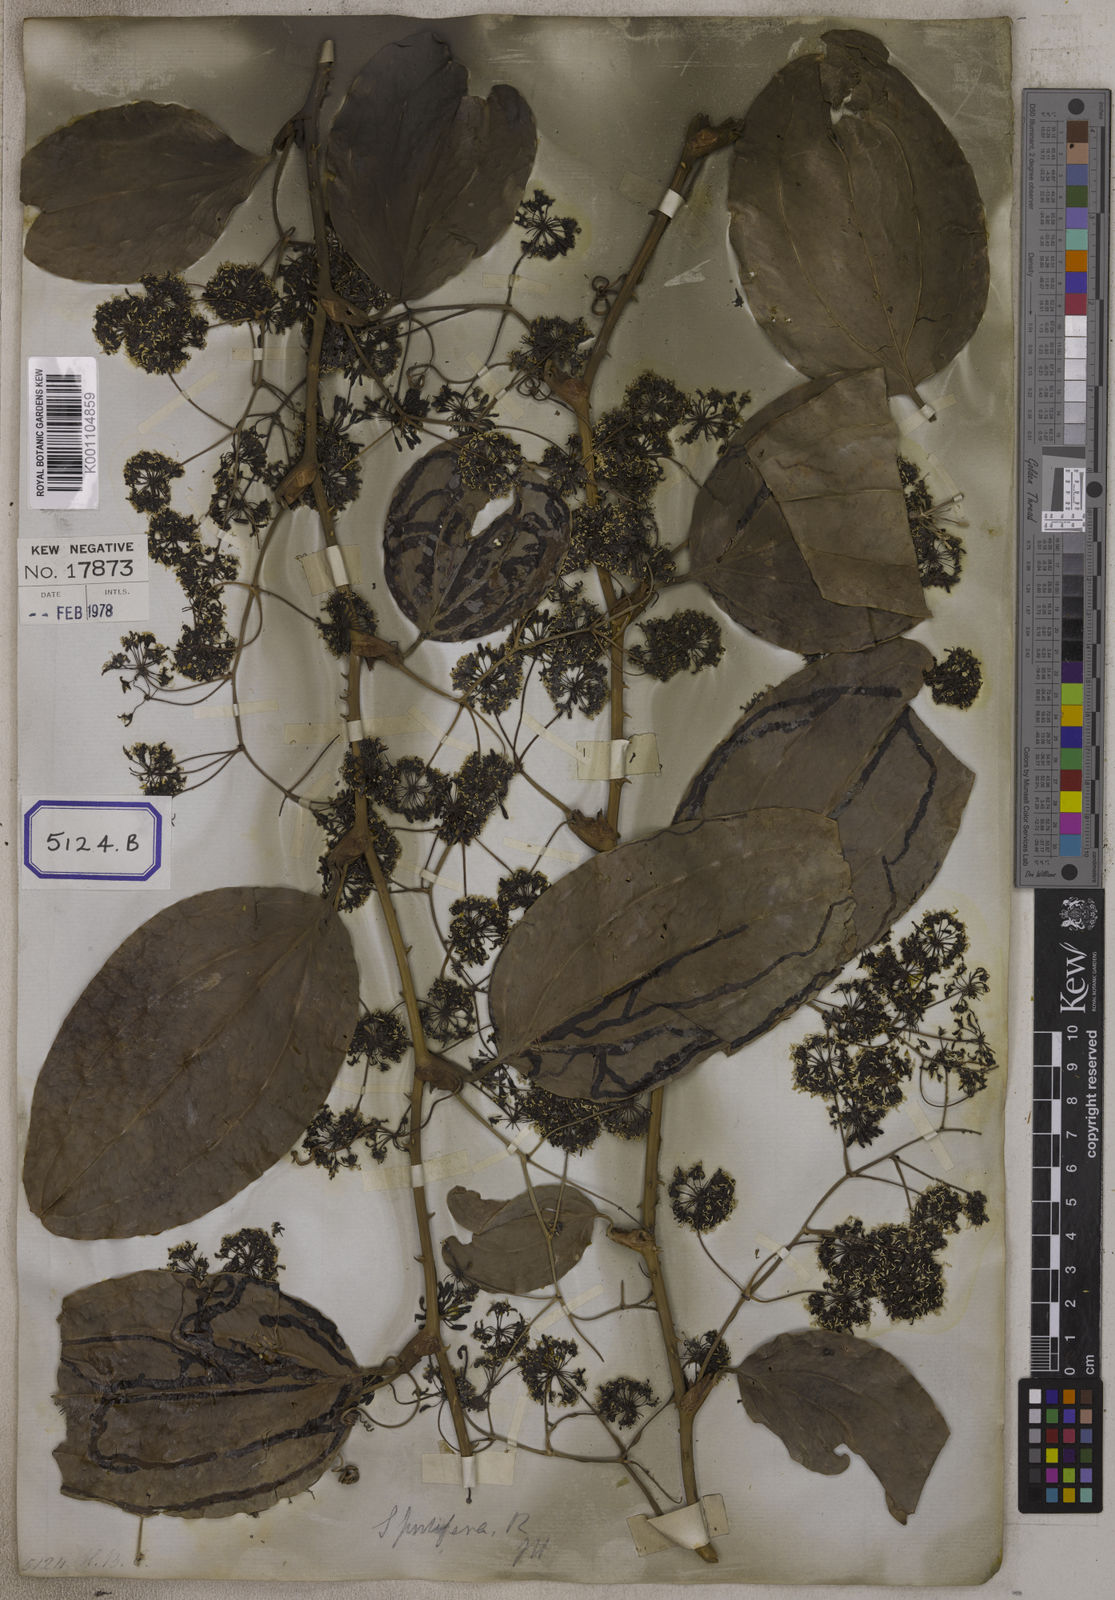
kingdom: Plantae
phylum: Tracheophyta
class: Liliopsida
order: Liliales
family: Smilacaceae
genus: Smilax
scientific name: Smilax prolifera
